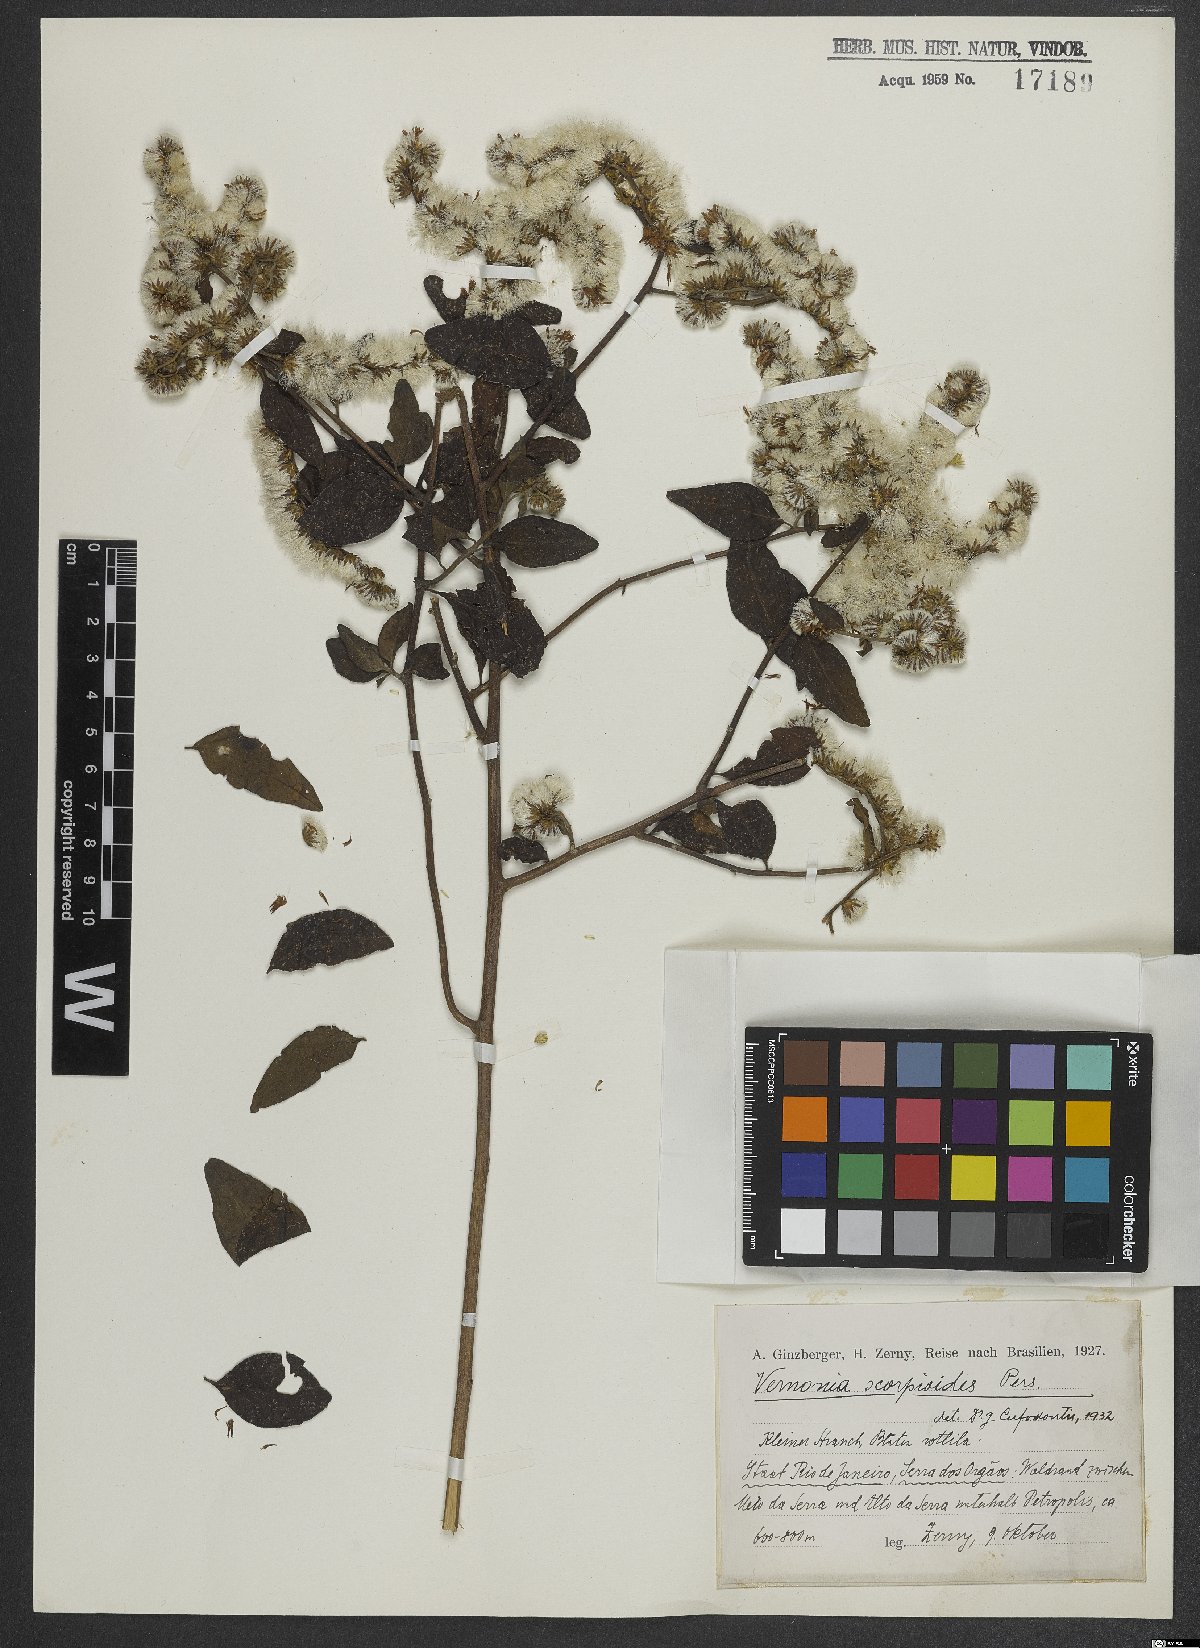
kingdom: Plantae
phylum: Tracheophyta
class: Magnoliopsida
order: Asterales
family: Asteraceae
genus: Cyrtocymura
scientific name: Cyrtocymura scorpioides
